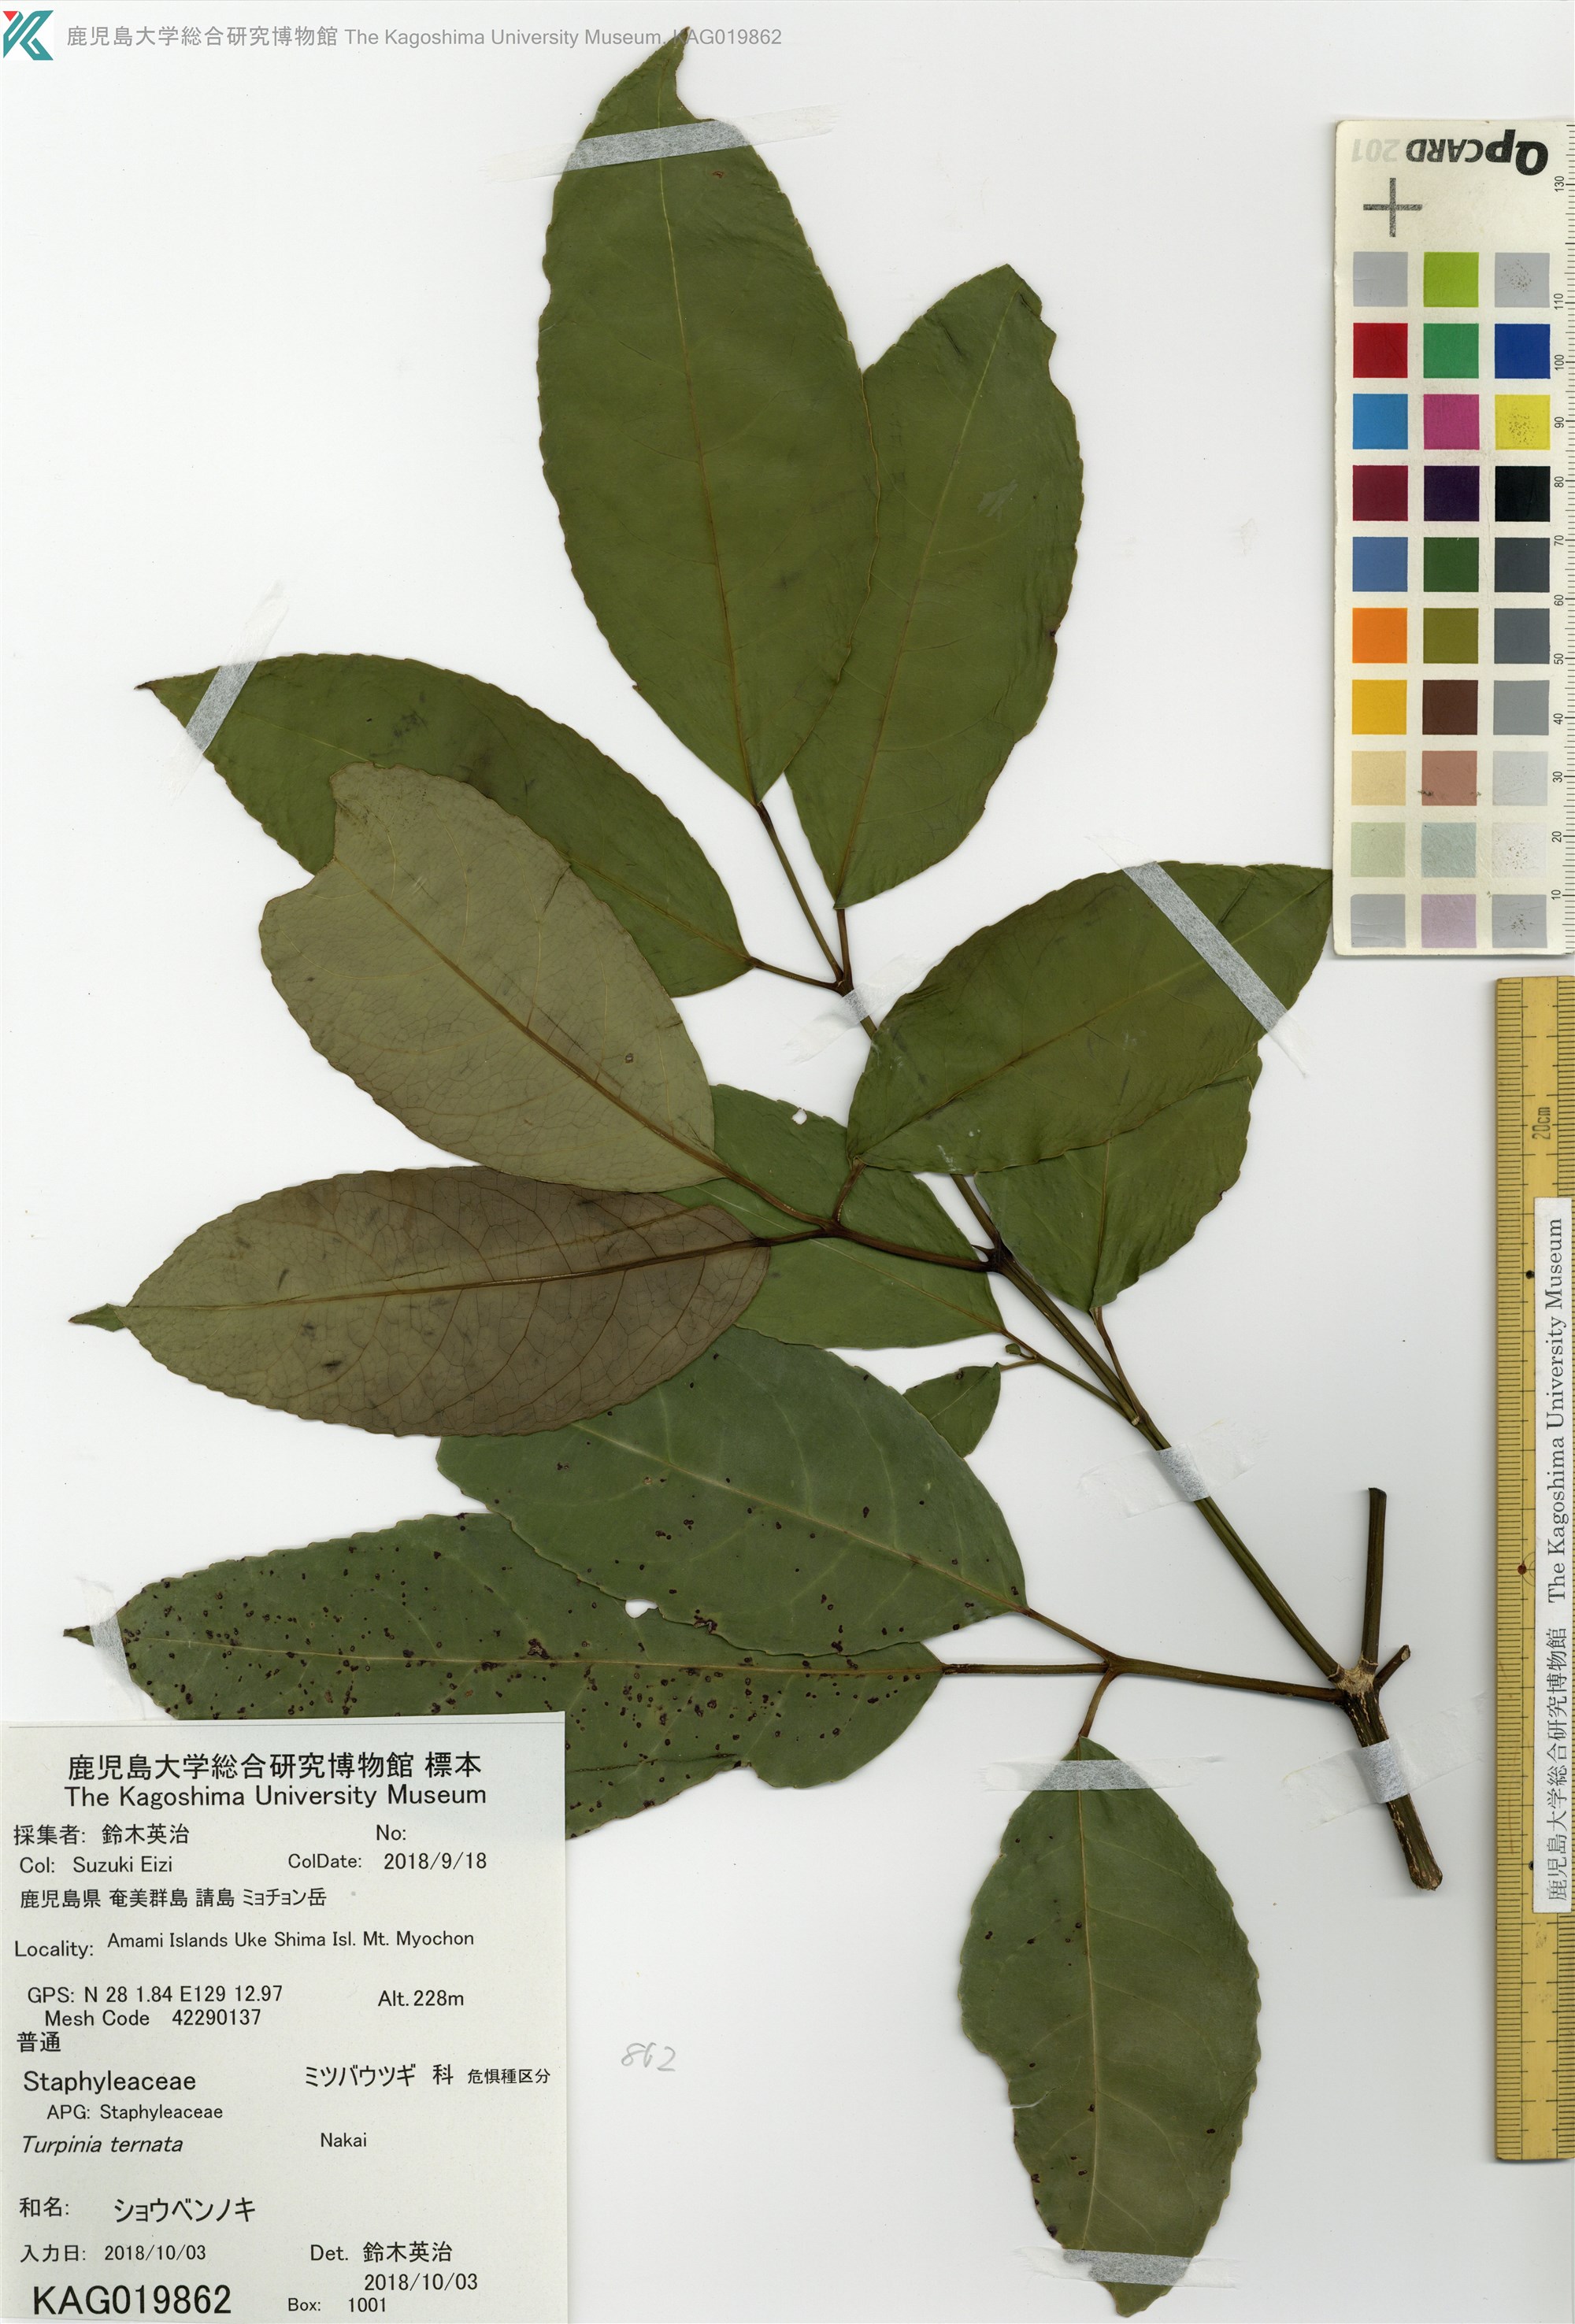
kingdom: Plantae
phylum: Tracheophyta
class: Magnoliopsida
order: Crossosomatales
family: Staphyleaceae
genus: Turpinia
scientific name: Turpinia ternata
